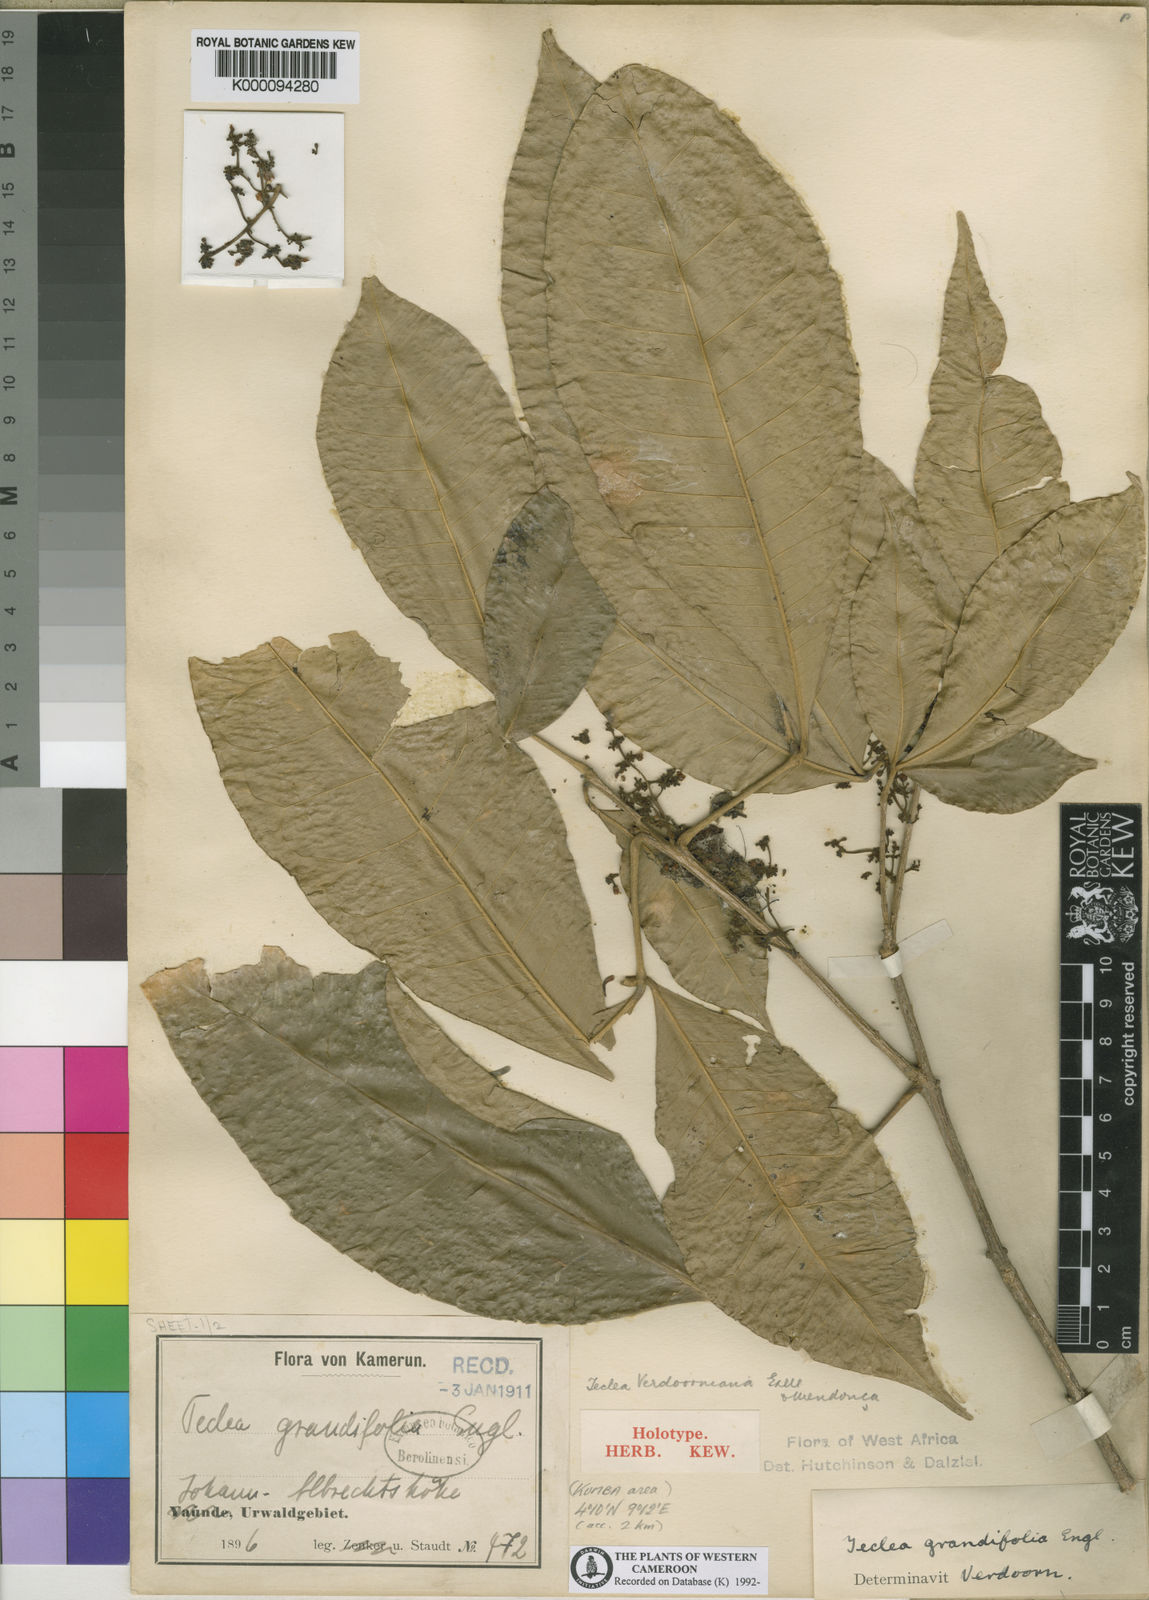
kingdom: Plantae
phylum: Tracheophyta
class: Magnoliopsida
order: Sapindales
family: Rutaceae
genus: Vepris
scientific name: Vepris
